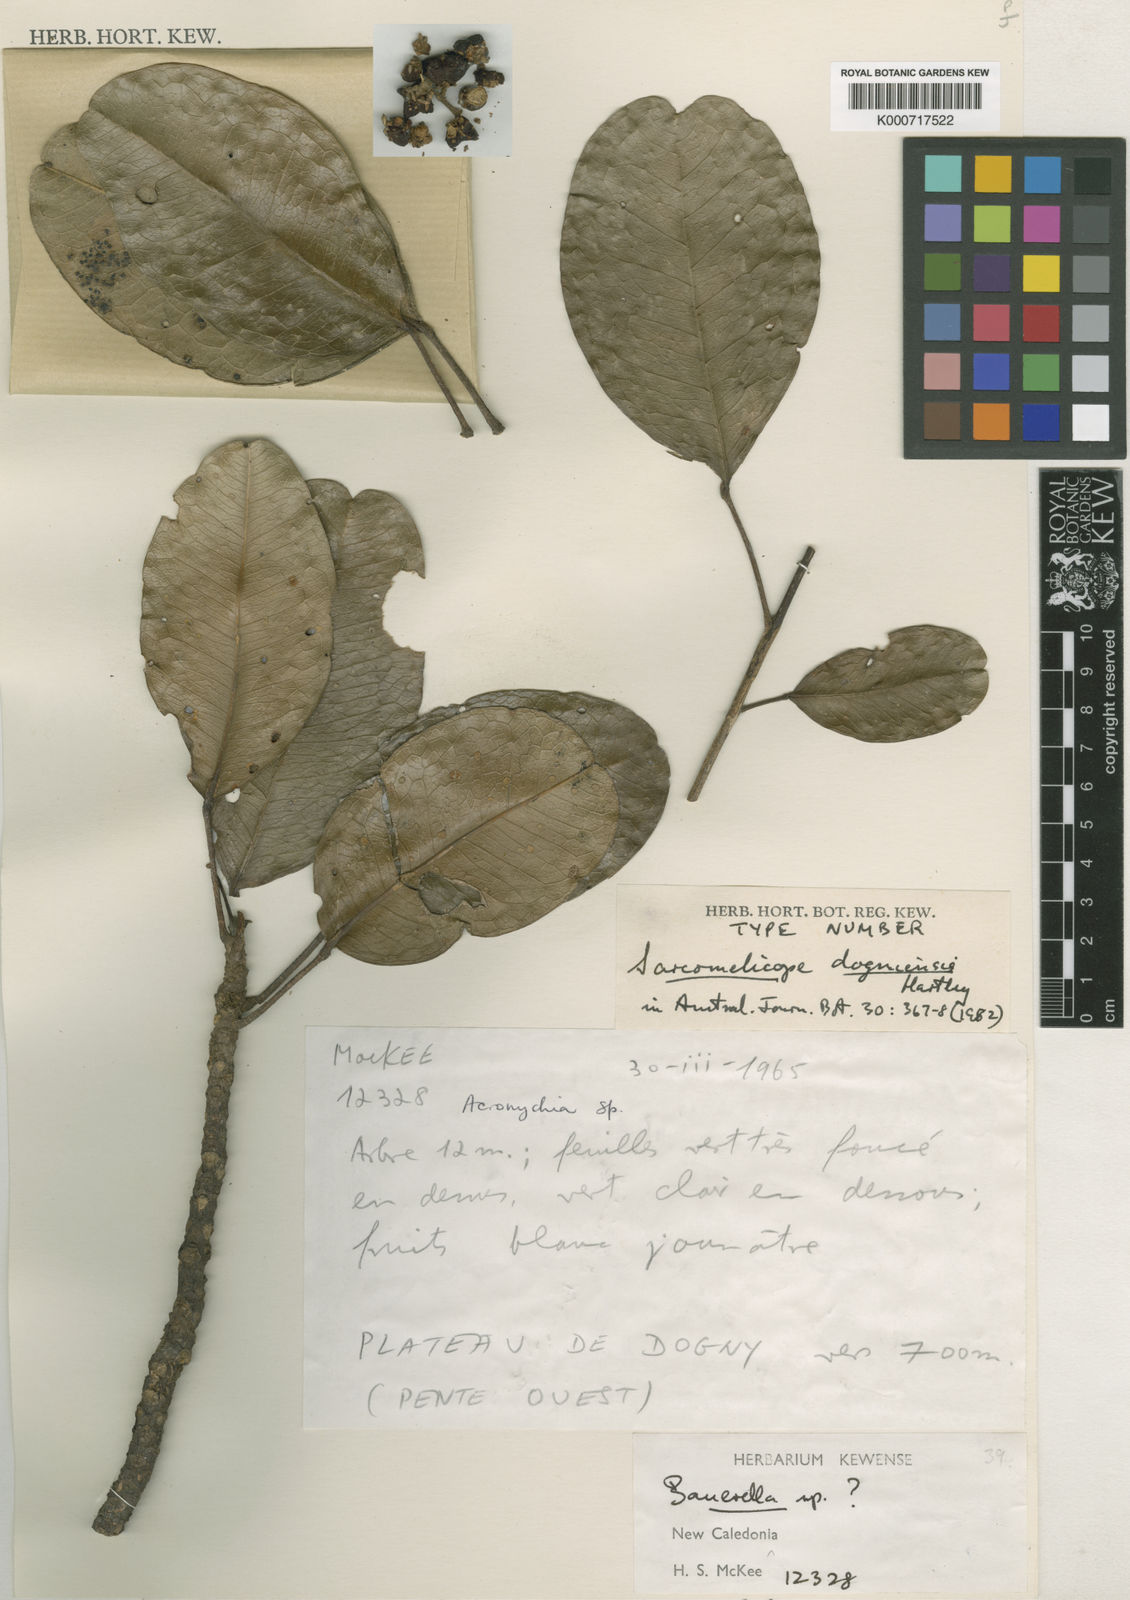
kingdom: Plantae
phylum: Tracheophyta
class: Magnoliopsida
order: Sapindales
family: Rutaceae
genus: Sarcomelicope
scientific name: Sarcomelicope dogniensis
